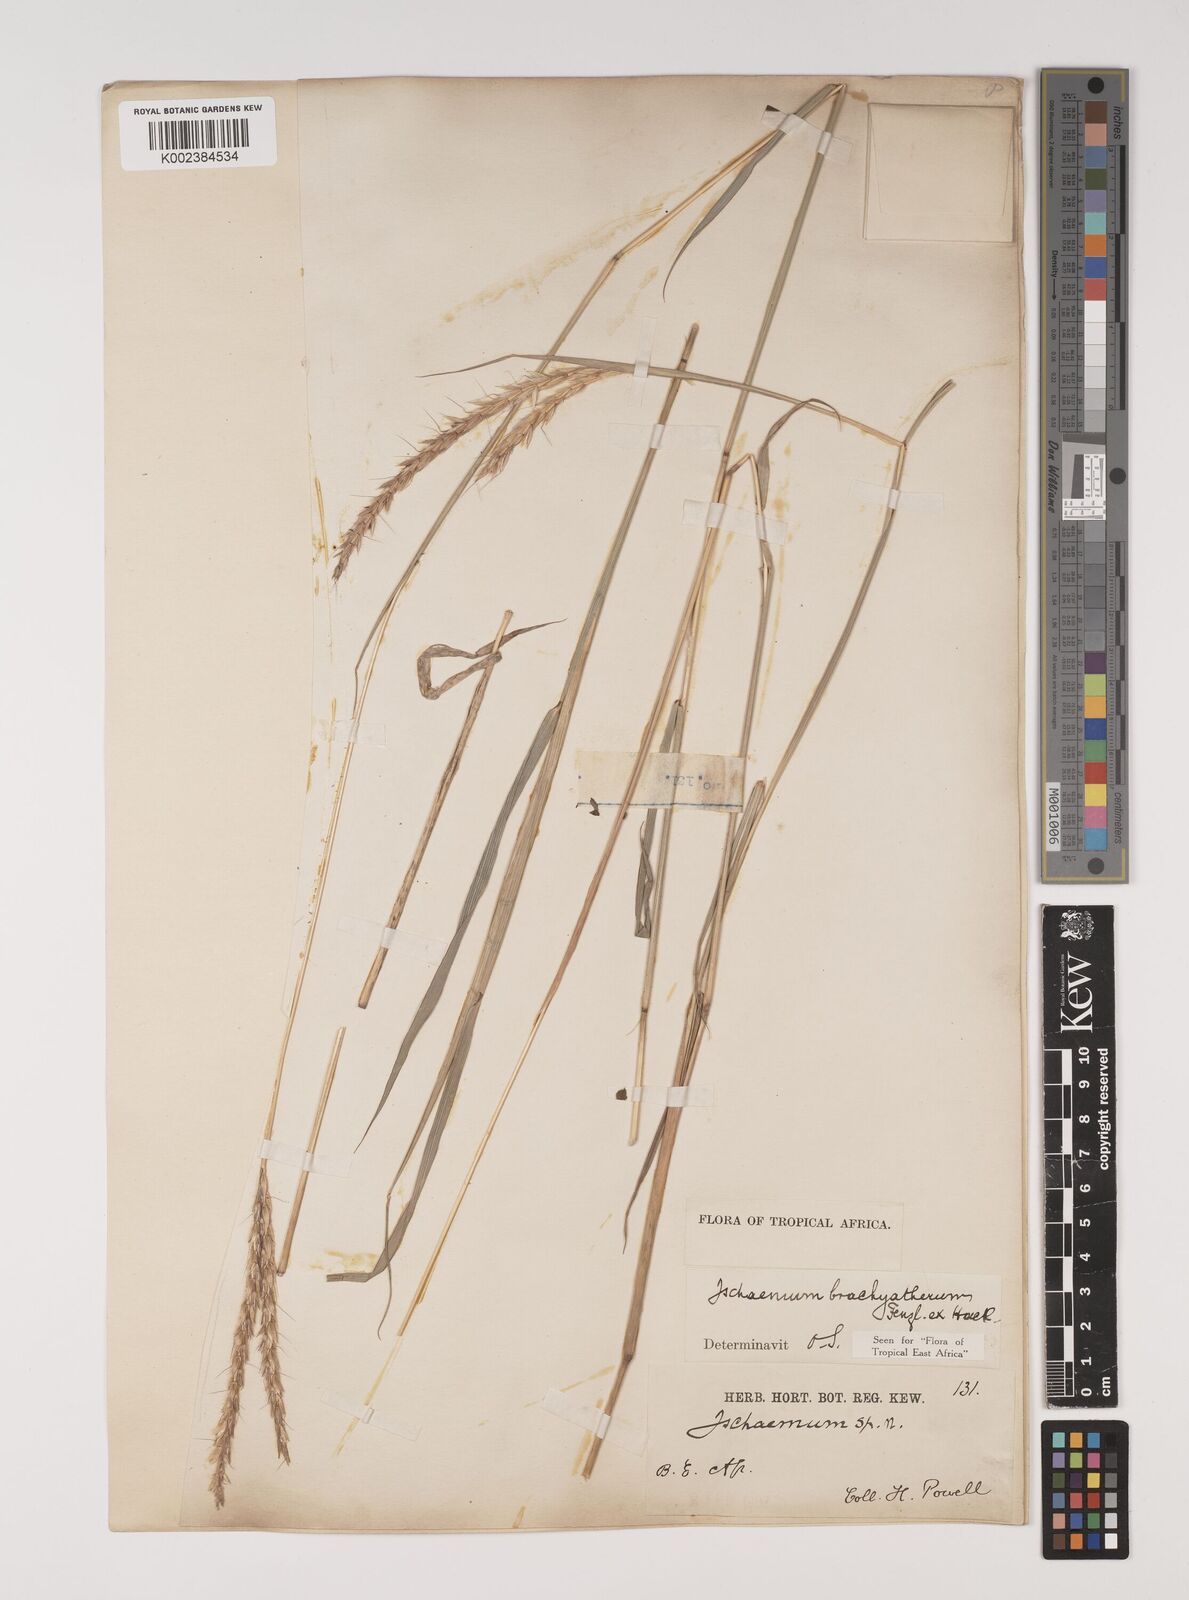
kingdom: Plantae
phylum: Tracheophyta
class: Liliopsida
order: Poales
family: Poaceae
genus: Ischaemum
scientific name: Ischaemum afrum
